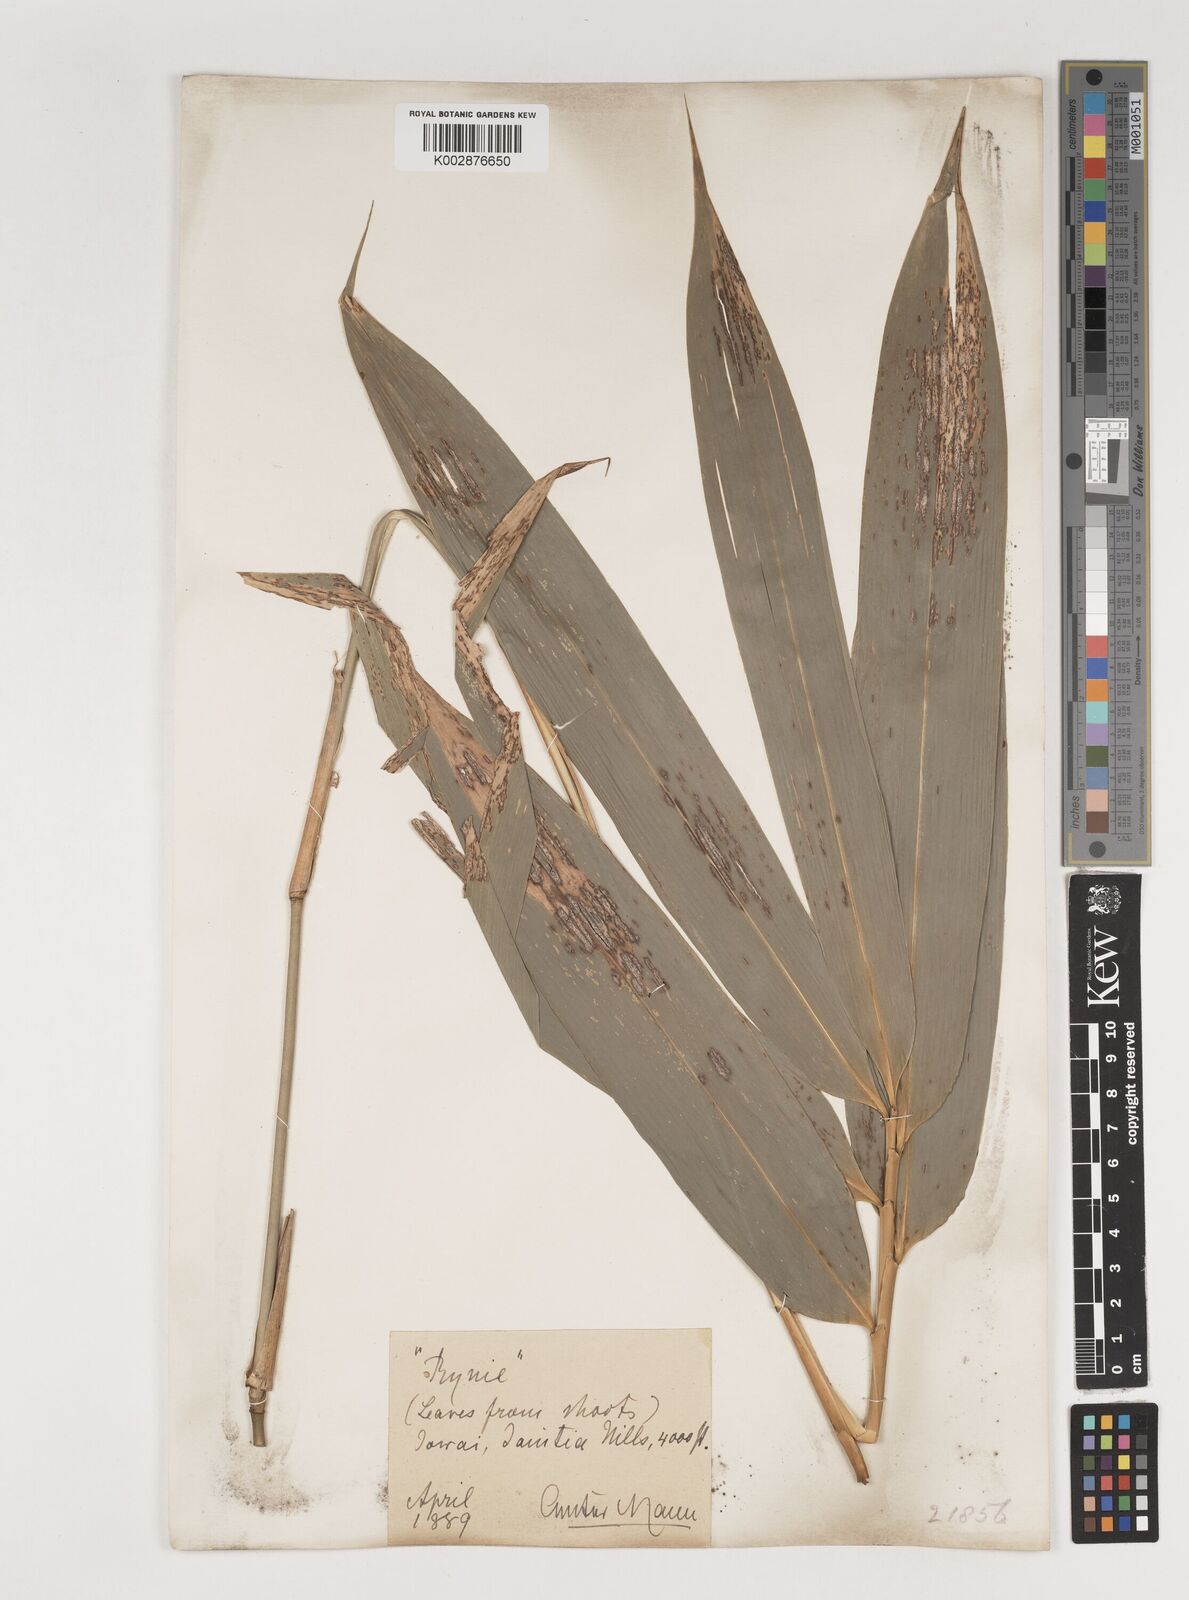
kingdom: Plantae
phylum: Tracheophyta
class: Liliopsida
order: Poales
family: Poaceae
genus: Bambusa
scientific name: Bambusa nutans
